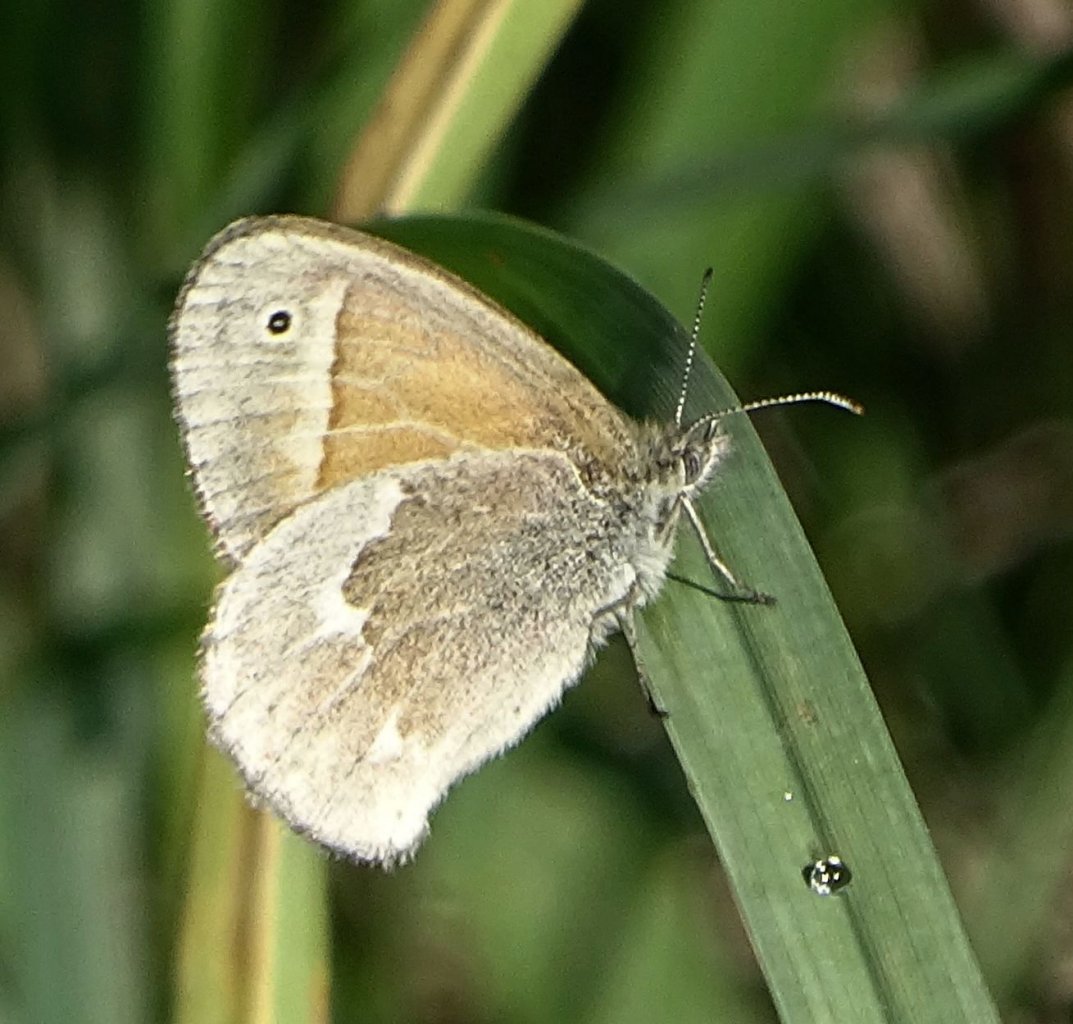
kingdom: Animalia
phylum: Arthropoda
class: Insecta
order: Lepidoptera
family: Nymphalidae
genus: Coenonympha
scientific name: Coenonympha tullia
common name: Large Heath
